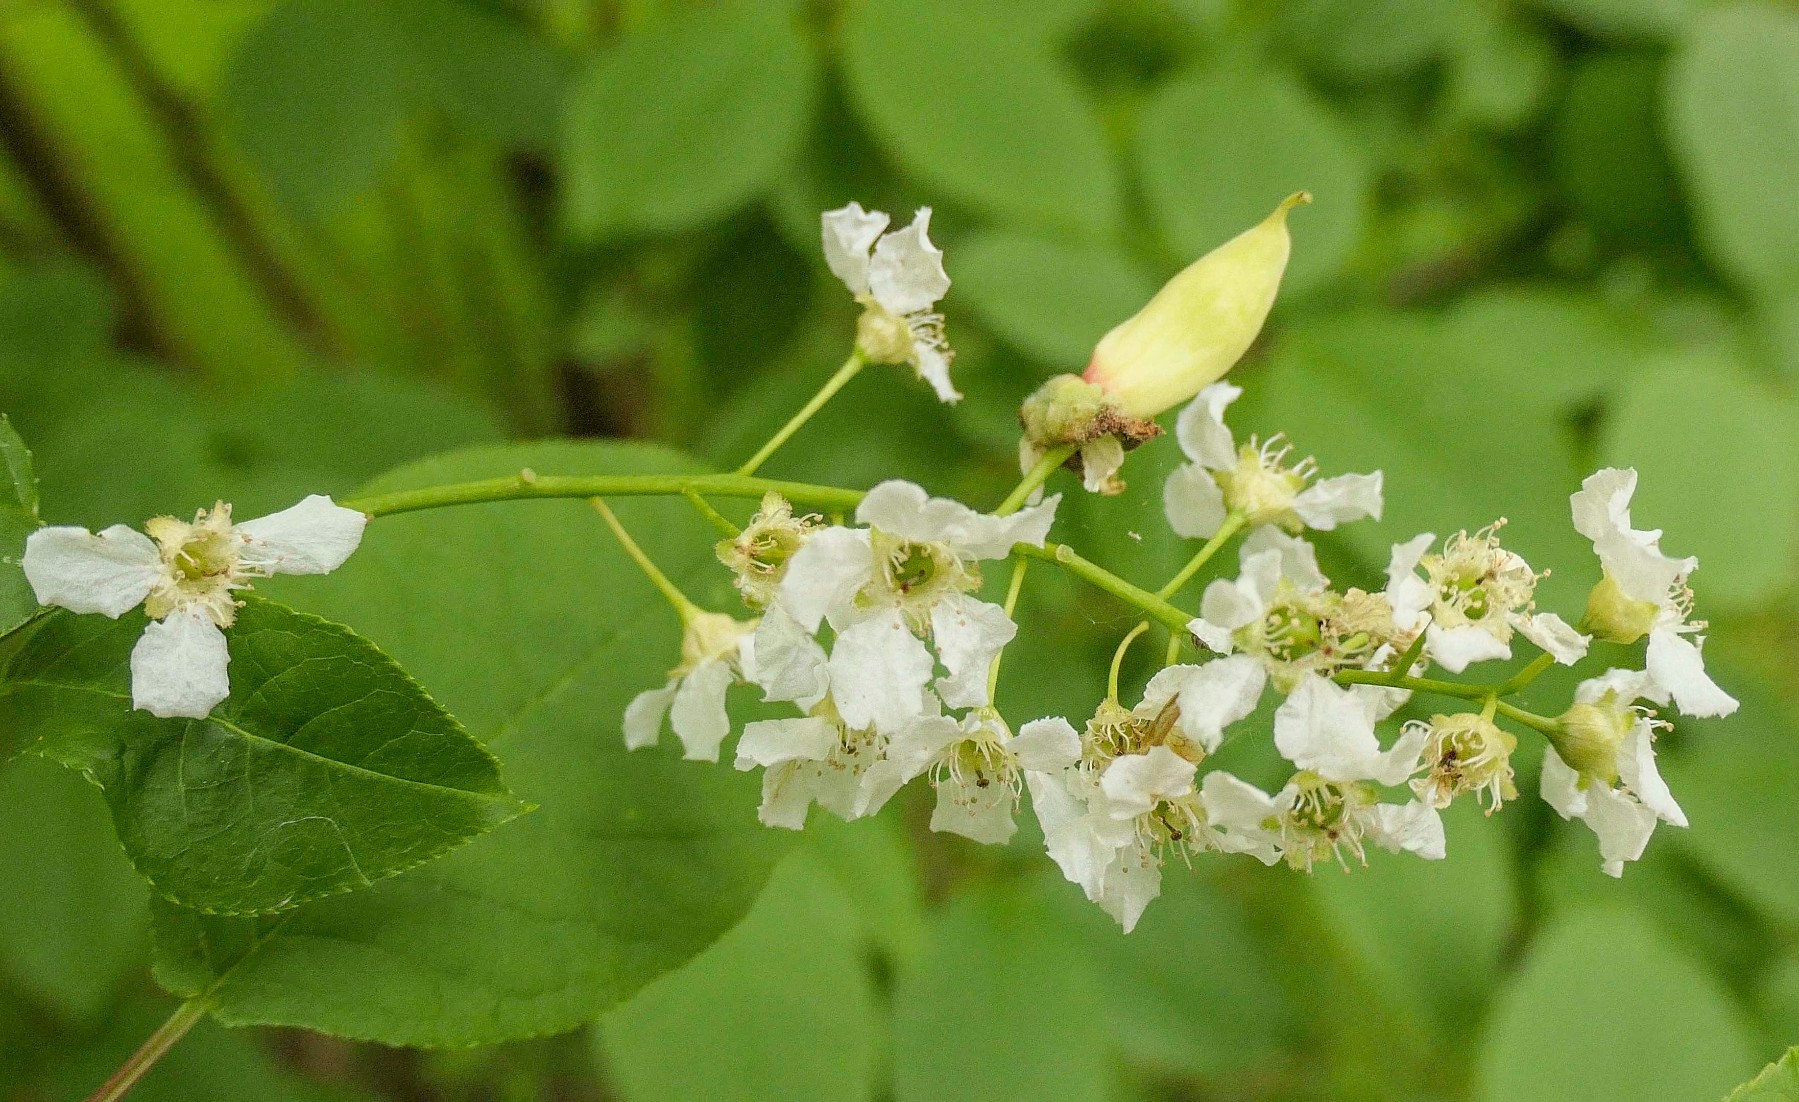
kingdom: Fungi
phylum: Ascomycota
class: Taphrinomycetes
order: Taphrinales
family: Taphrinaceae
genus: Taphrina
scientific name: Taphrina padi
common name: Bird cherry pocket
